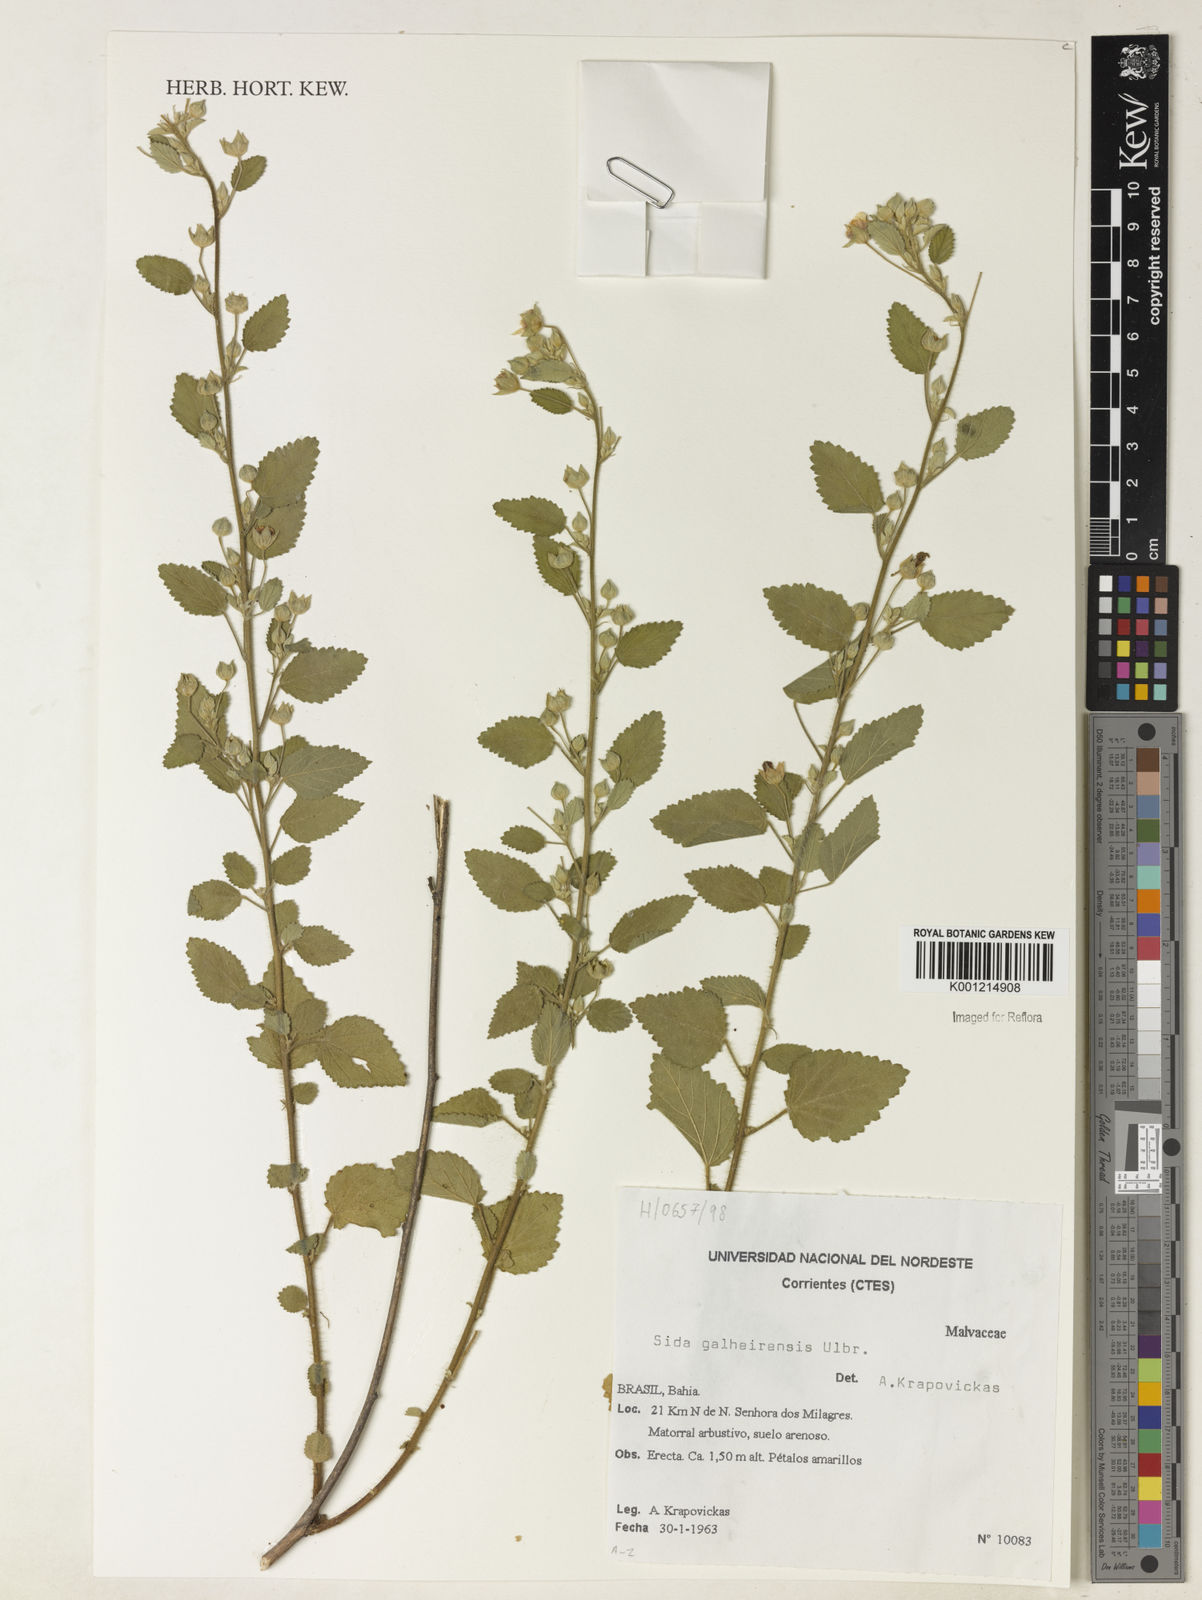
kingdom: Plantae
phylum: Tracheophyta
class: Magnoliopsida
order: Malvales
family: Malvaceae
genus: Sida
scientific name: Sida galheirensis
